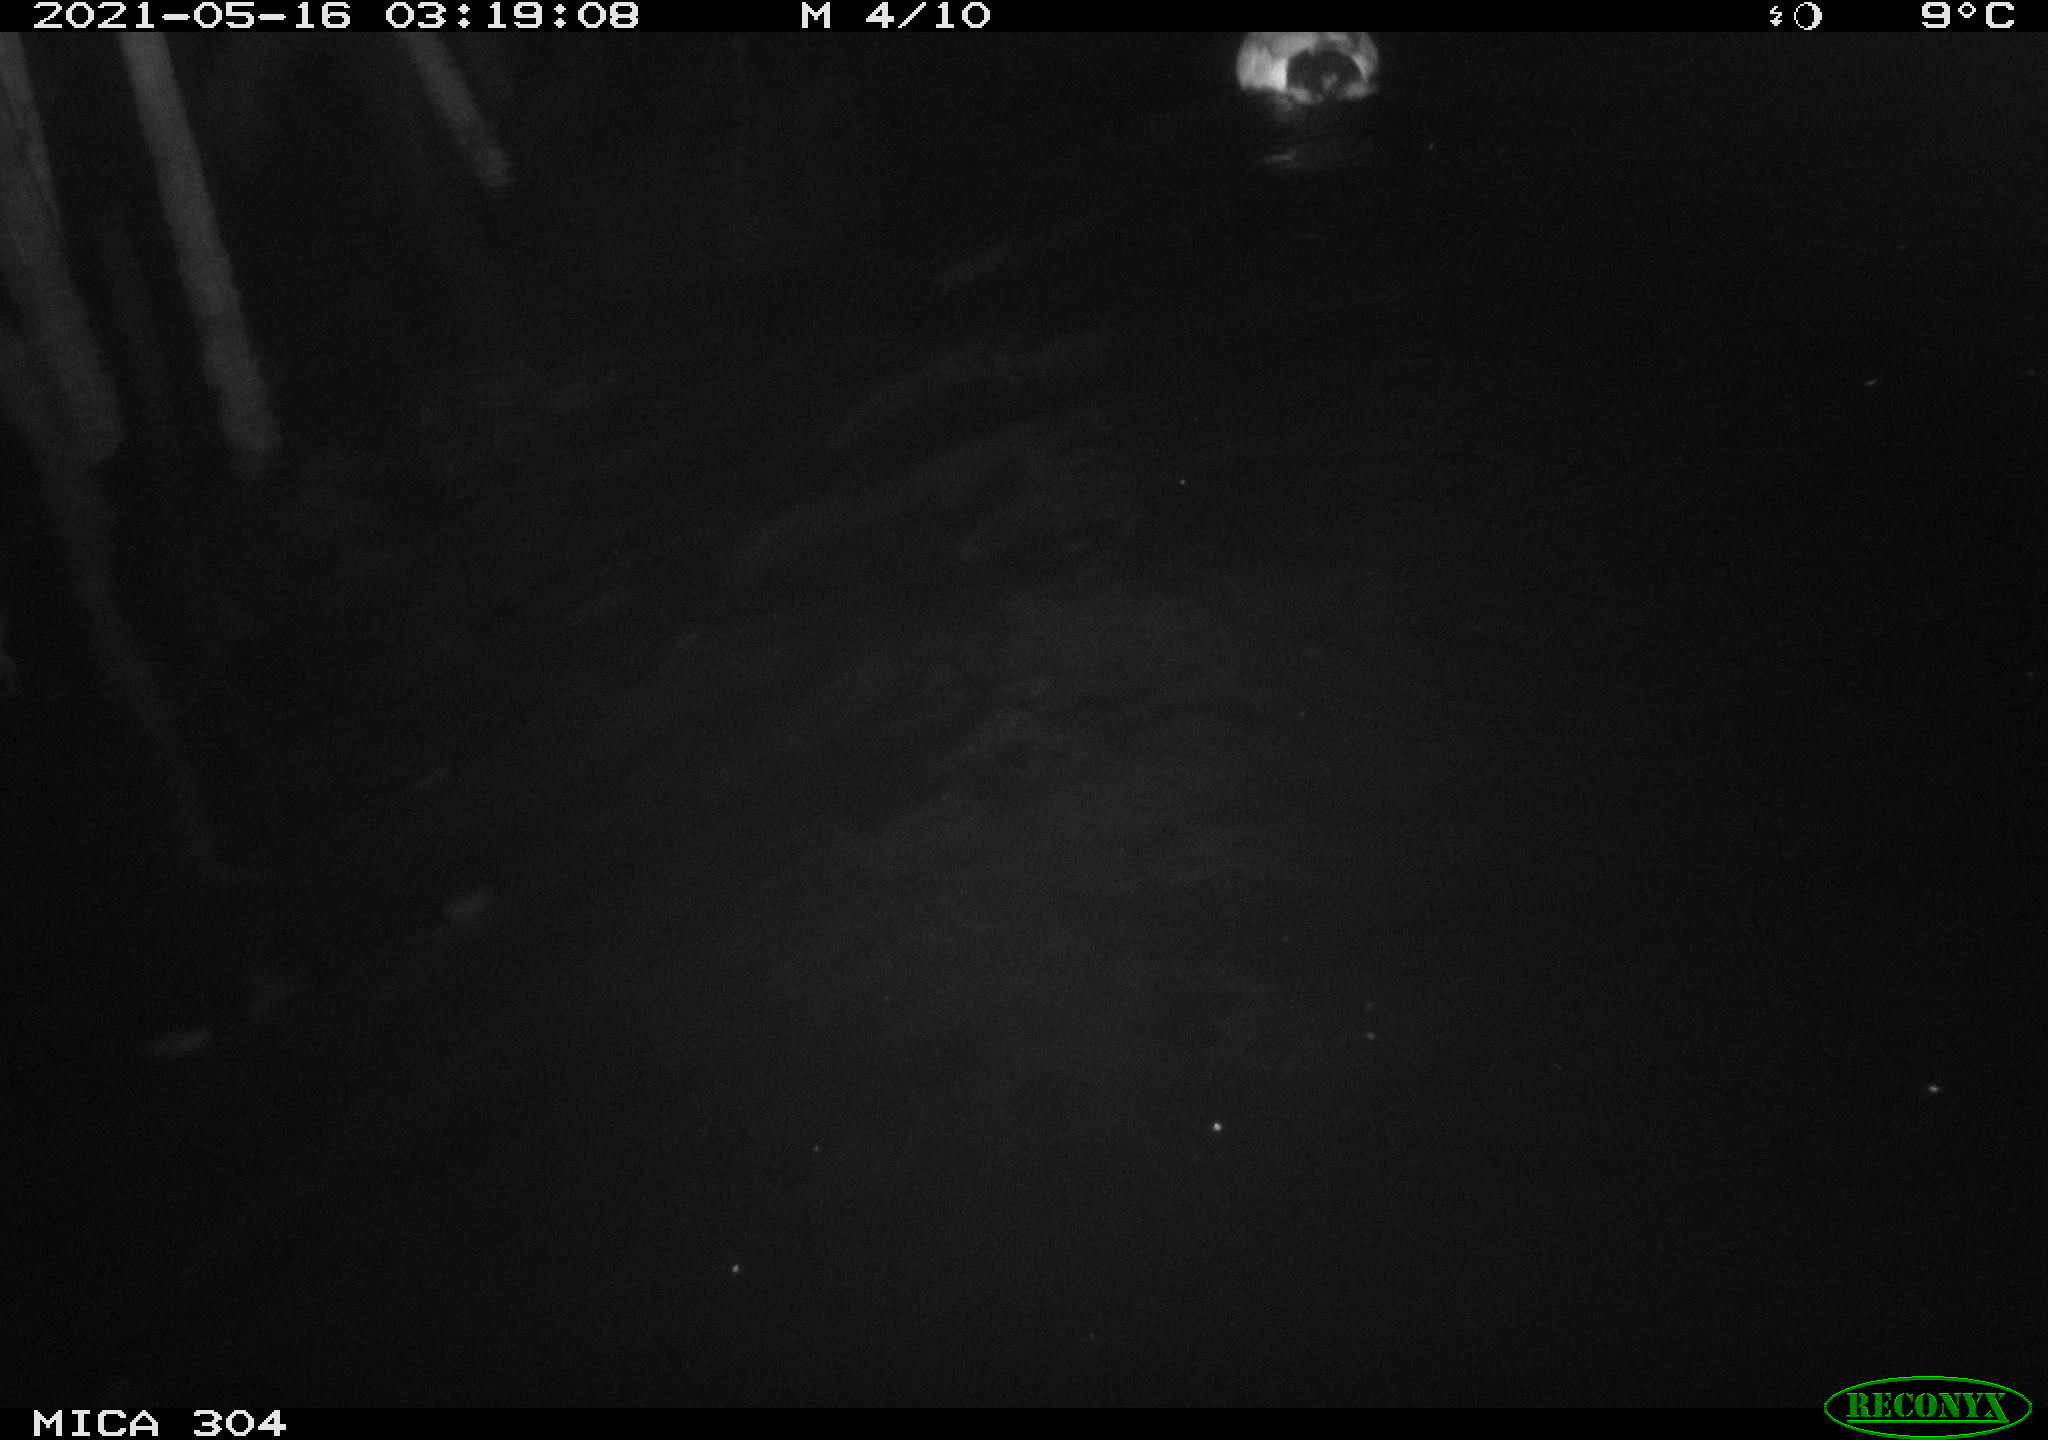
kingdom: Animalia
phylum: Chordata
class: Aves
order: Anseriformes
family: Anatidae
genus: Anas
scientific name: Anas platyrhynchos
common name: Mallard
